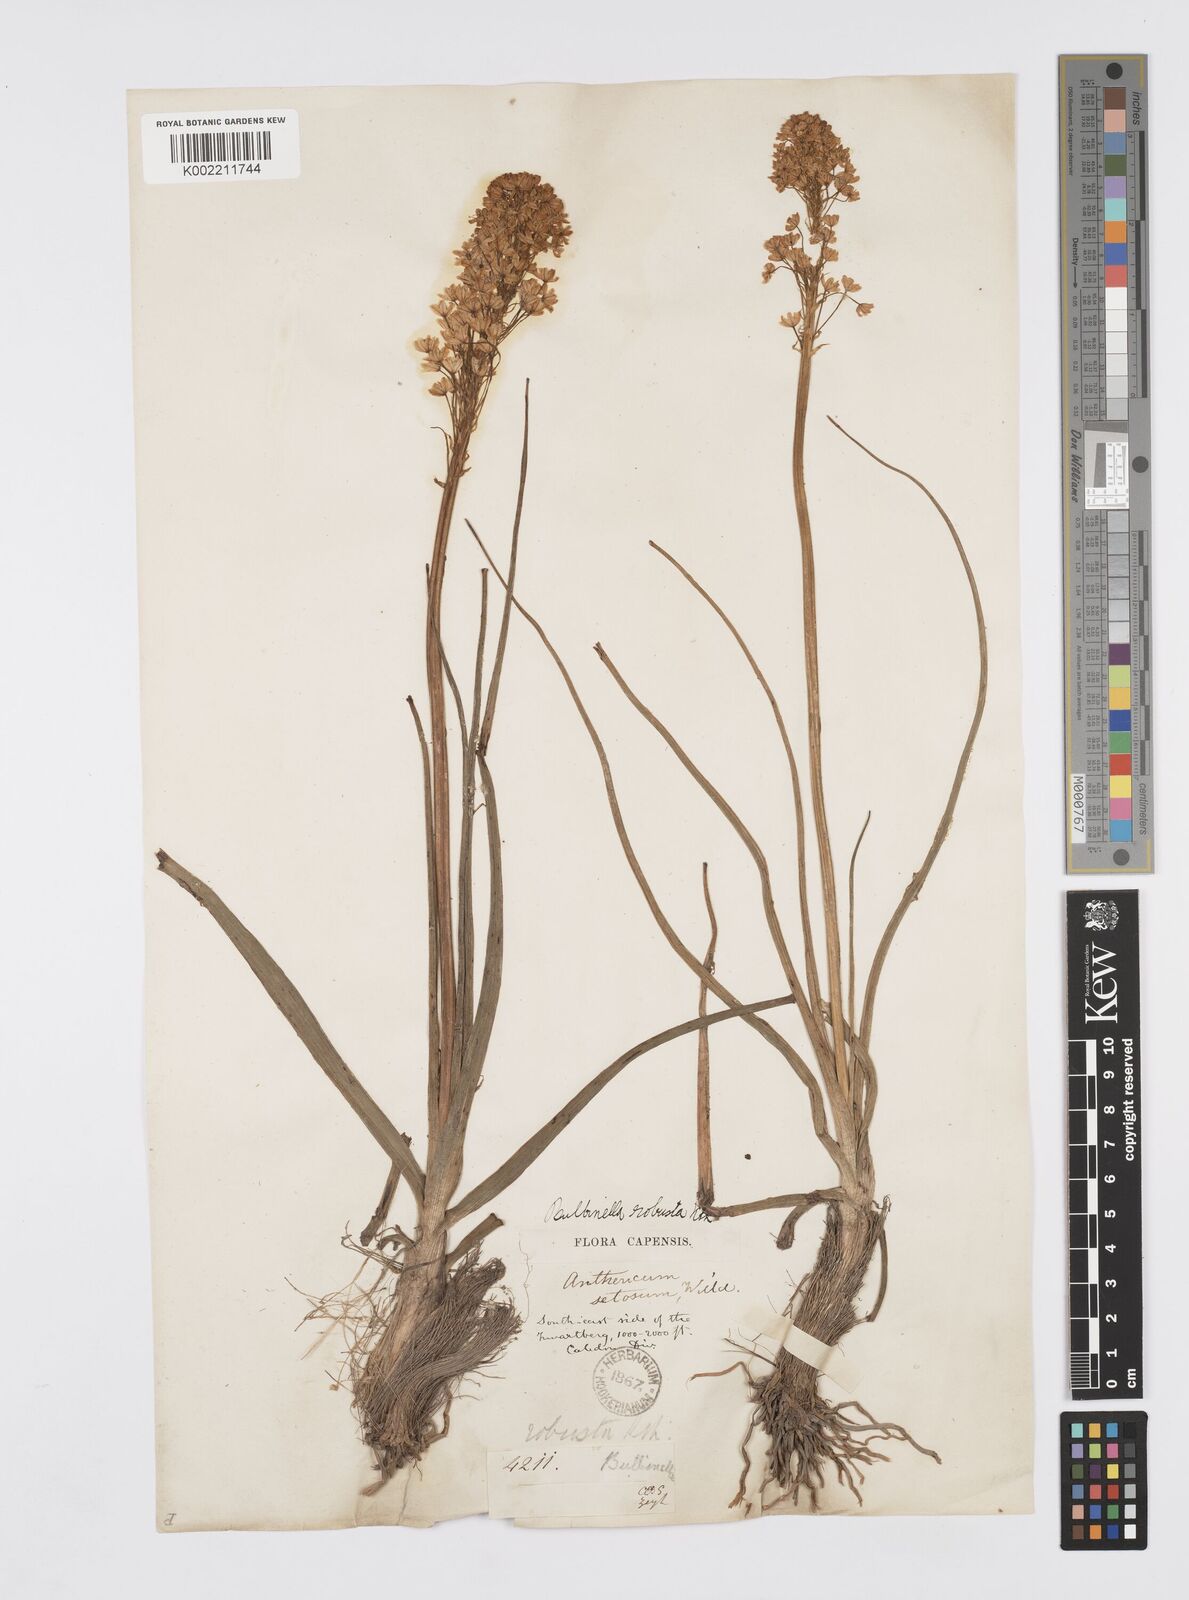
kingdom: Plantae
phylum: Tracheophyta
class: Liliopsida
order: Asparagales
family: Asphodelaceae
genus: Bulbinella
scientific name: Bulbinella nutans
